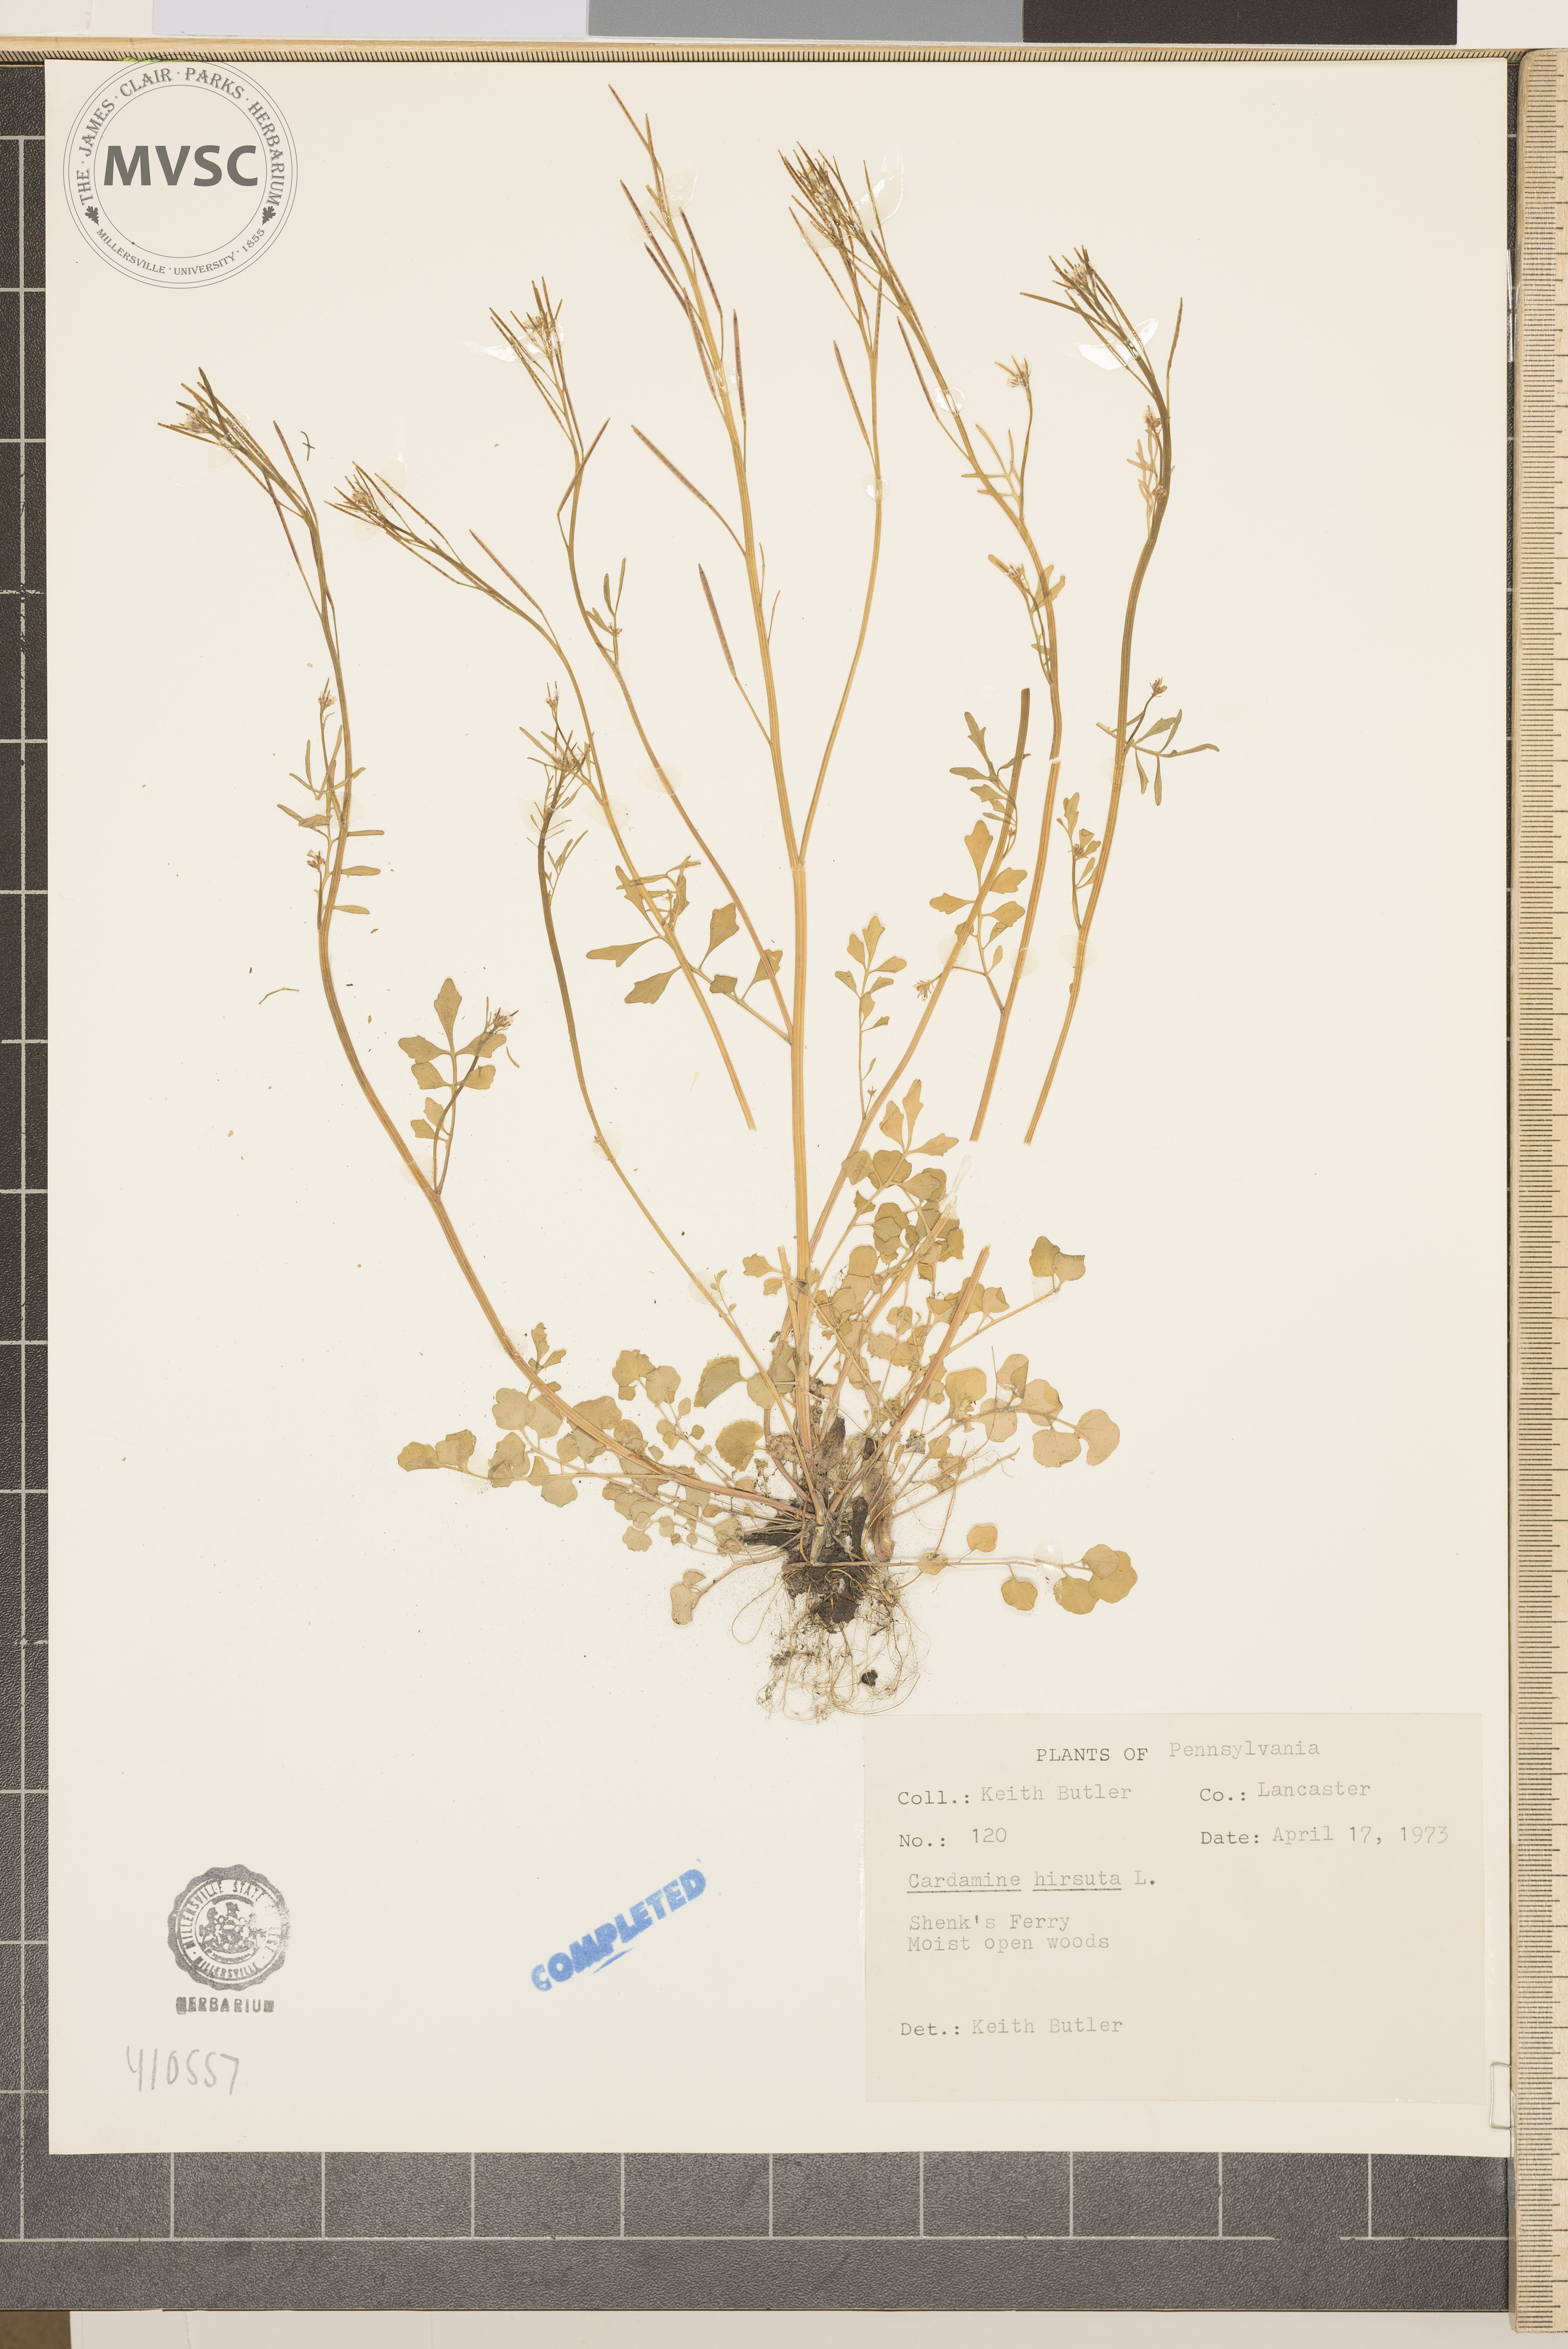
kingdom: Plantae
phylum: Tracheophyta
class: Magnoliopsida
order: Brassicales
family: Brassicaceae
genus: Cardamine
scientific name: Cardamine hirsuta
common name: Hairy bittercress
